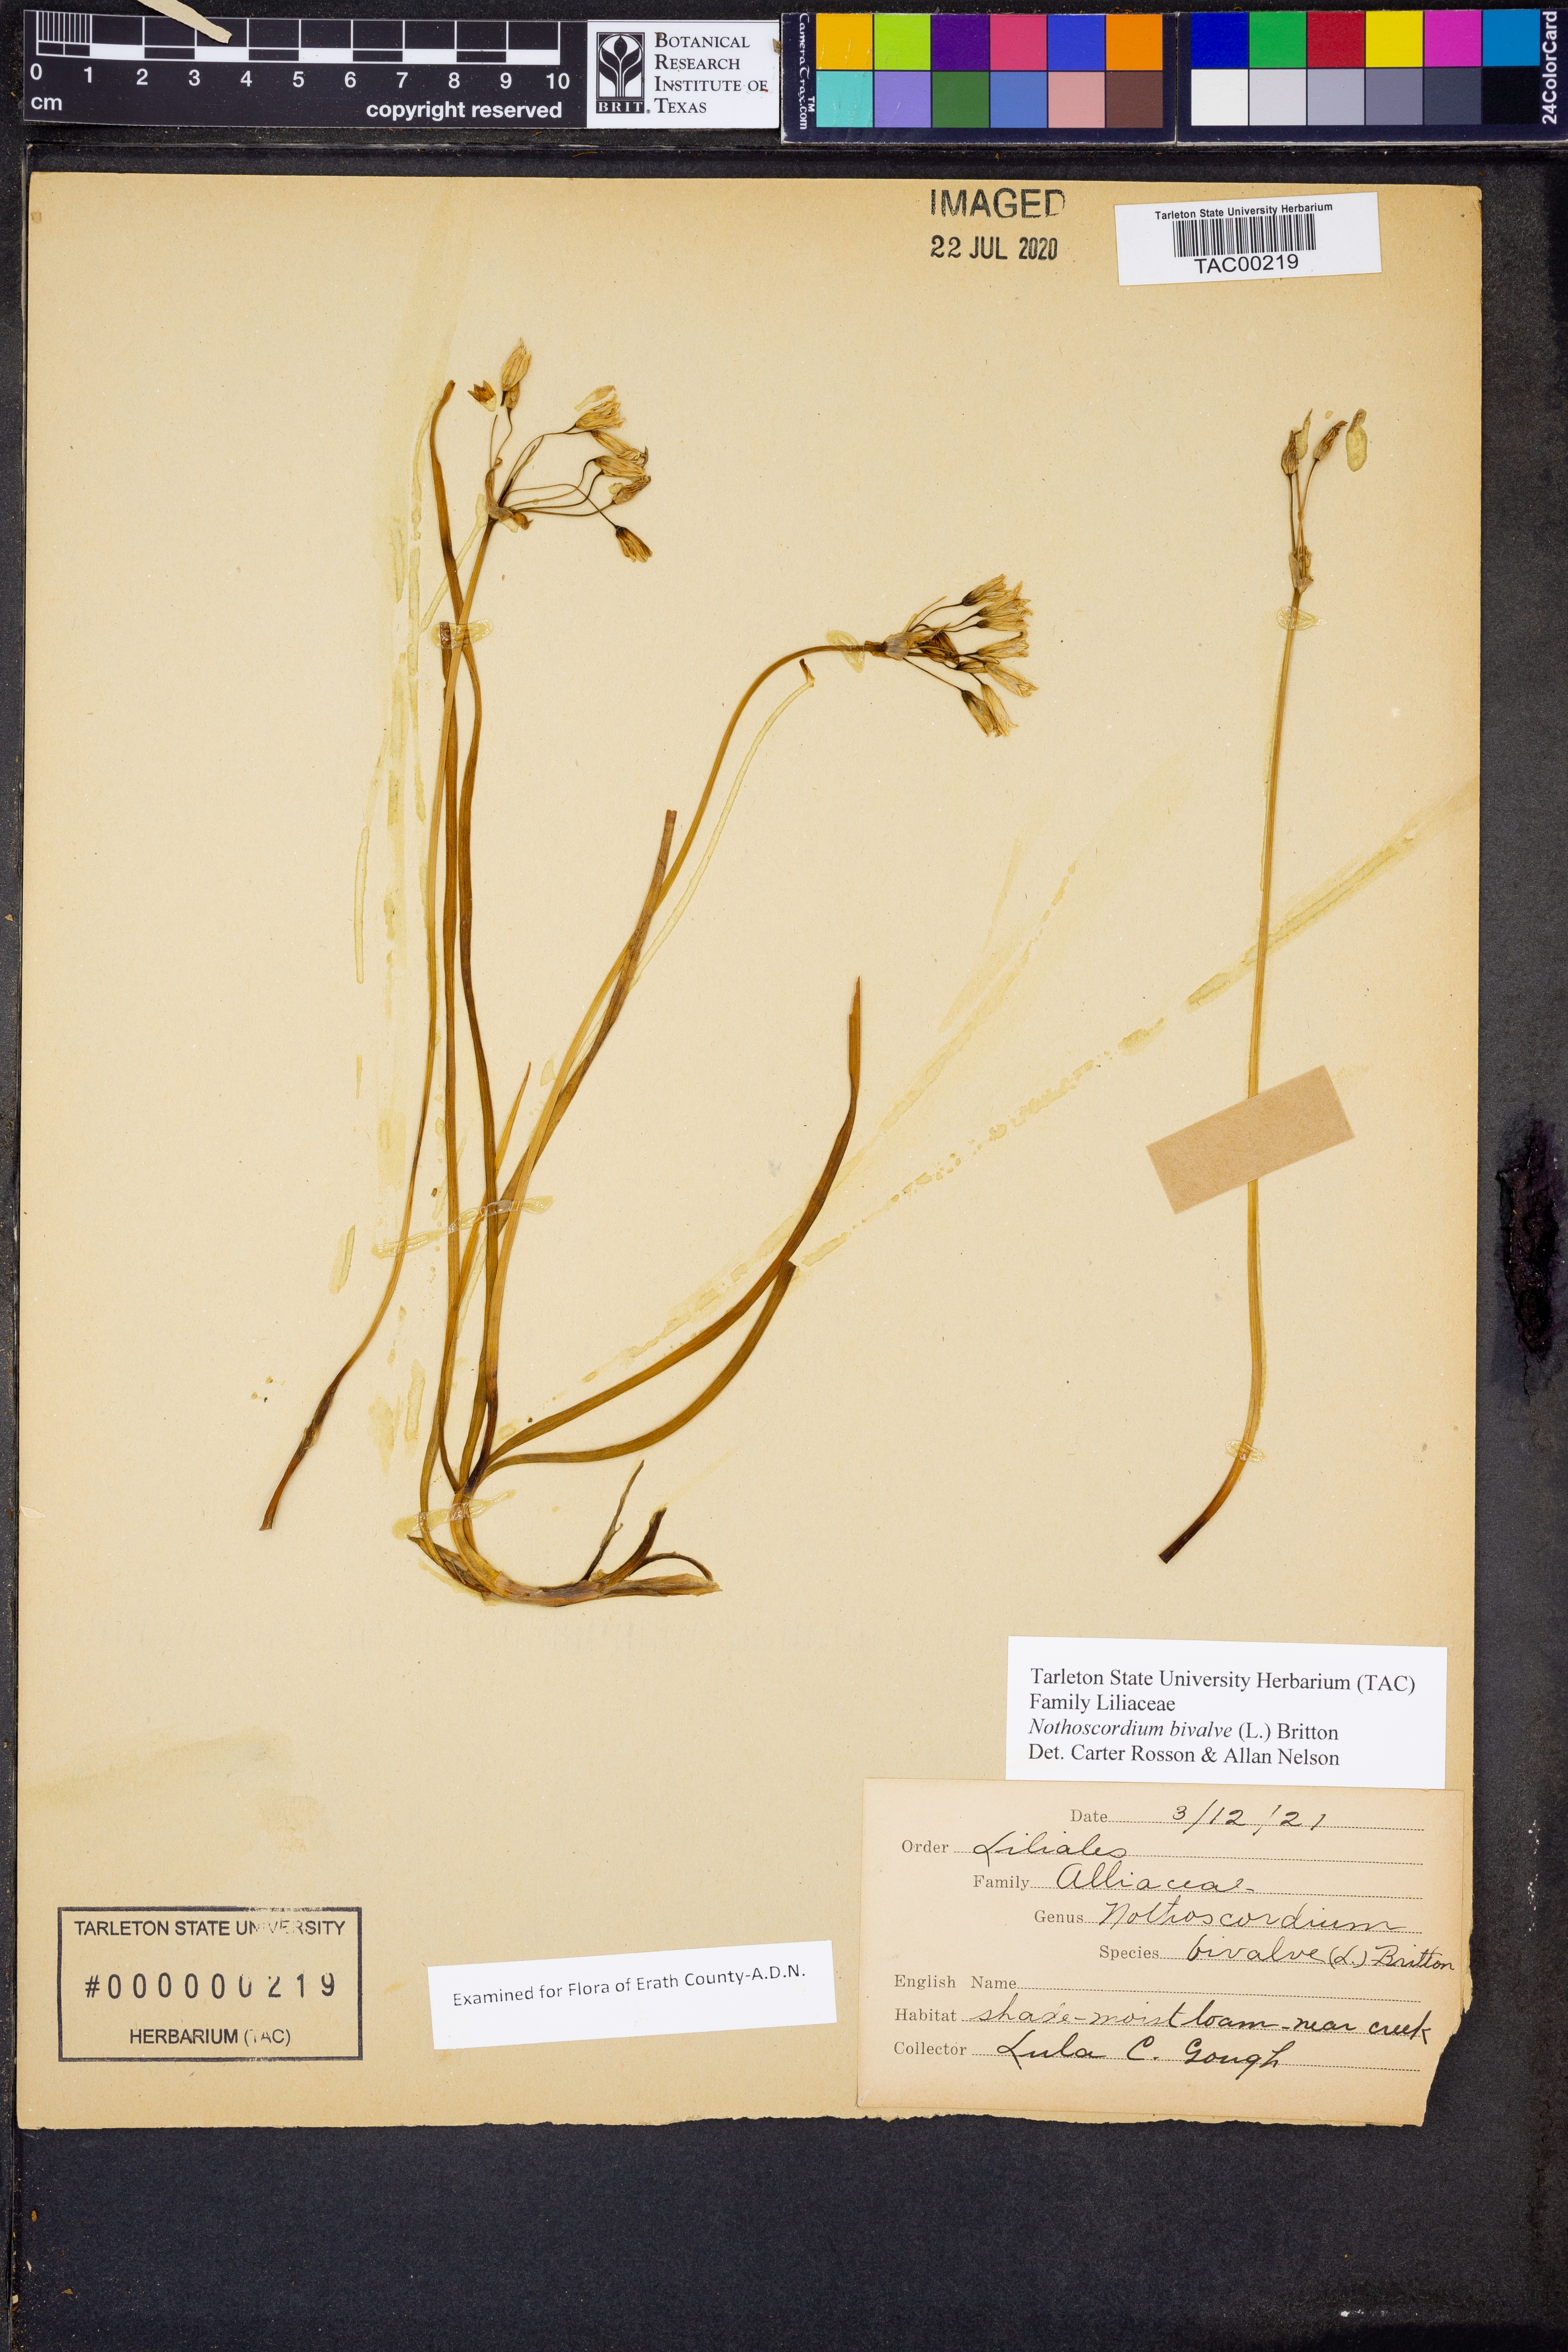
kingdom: Plantae
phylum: Tracheophyta
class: Liliopsida
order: Asparagales
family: Amaryllidaceae
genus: Nothoscordum
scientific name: Nothoscordum bivalve
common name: Crow-poison
